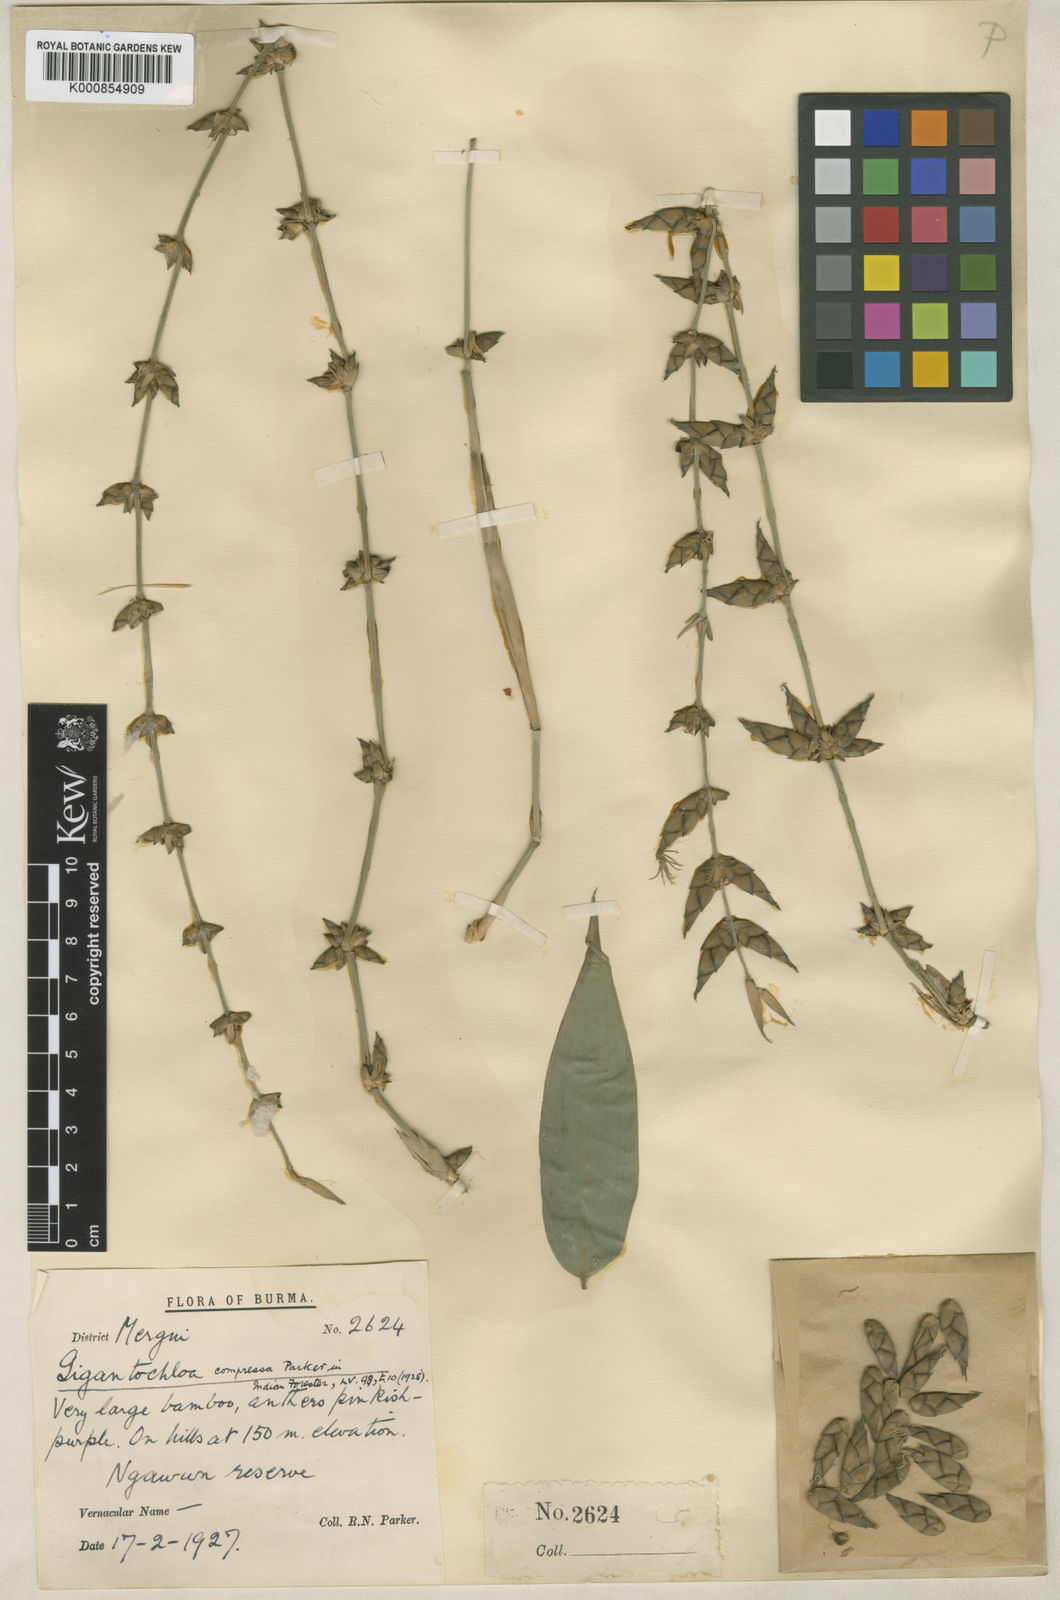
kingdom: Plantae
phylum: Tracheophyta
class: Liliopsida
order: Poales
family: Poaceae
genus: Gigantochloa
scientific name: Gigantochloa compressa
